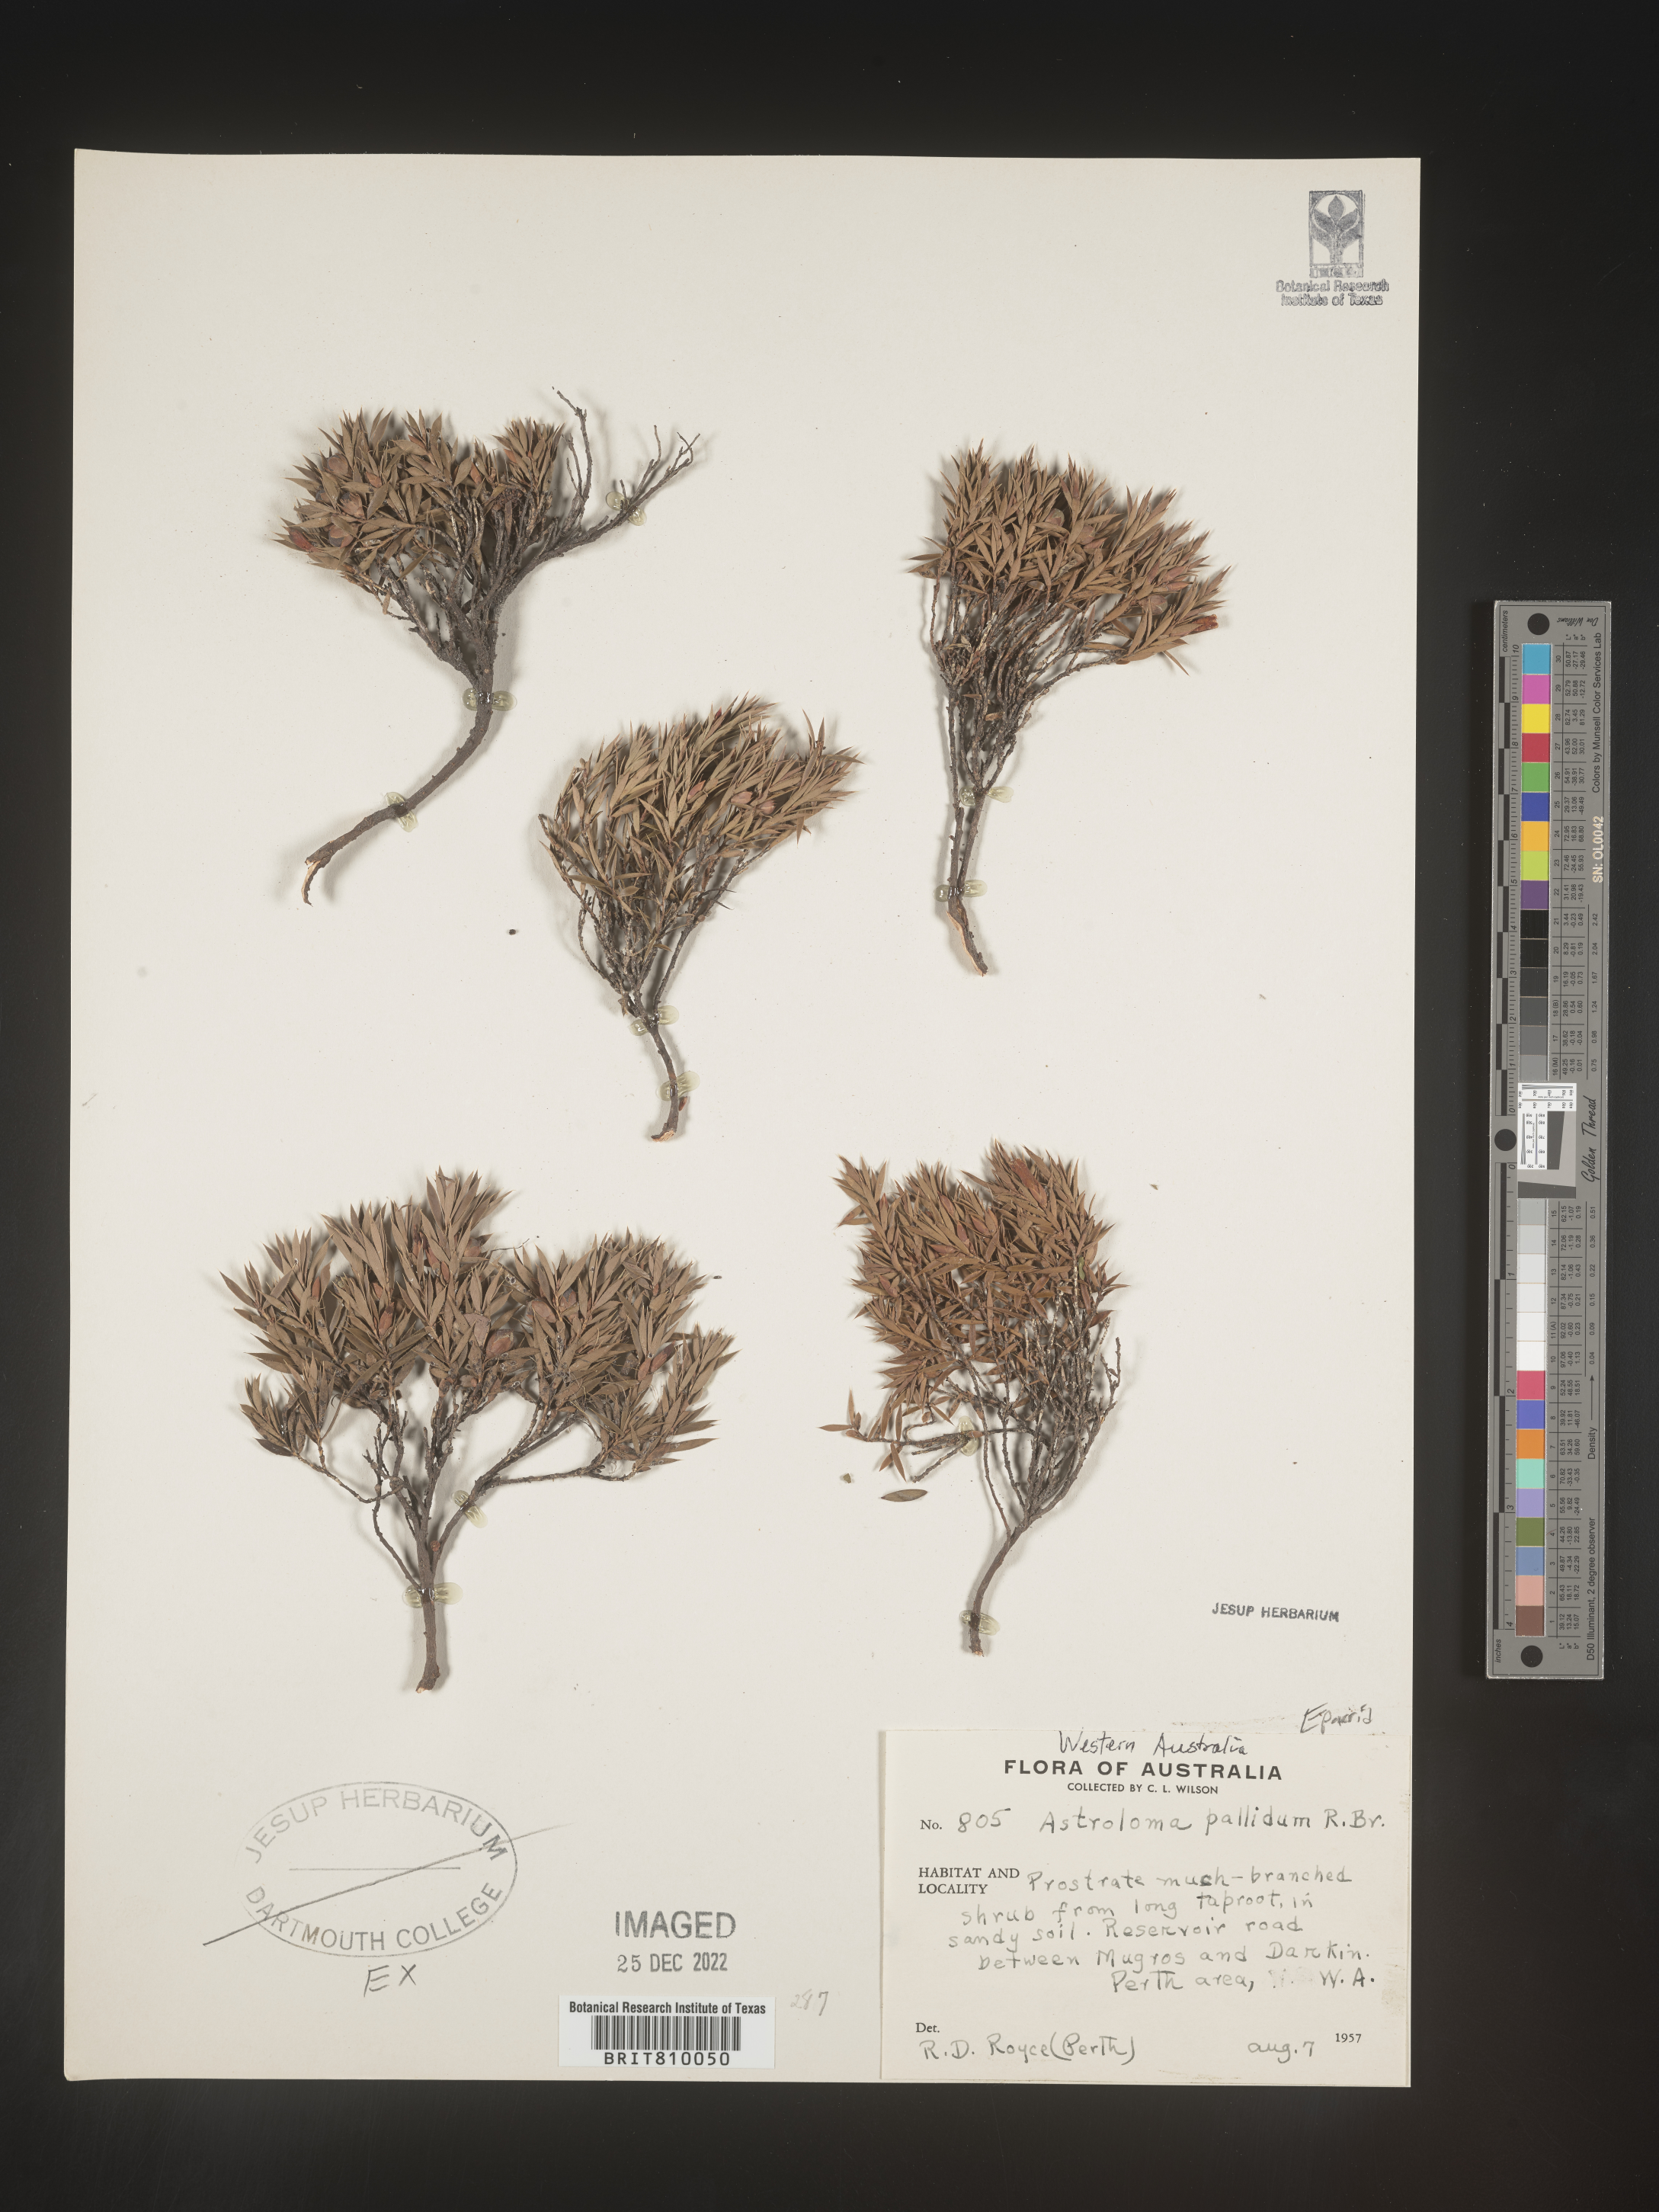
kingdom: Plantae
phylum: Tracheophyta
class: Magnoliopsida
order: Ericales
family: Ericaceae
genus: Styphelia
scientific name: Styphelia
